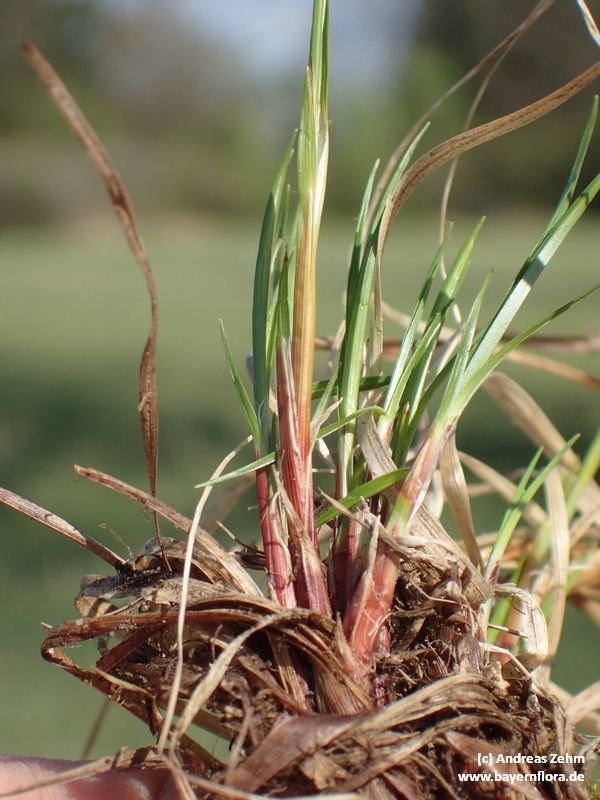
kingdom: Plantae
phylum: Tracheophyta
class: Liliopsida
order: Poales
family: Cyperaceae
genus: Carex
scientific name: Carex montana
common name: Soft-leaved sedge
